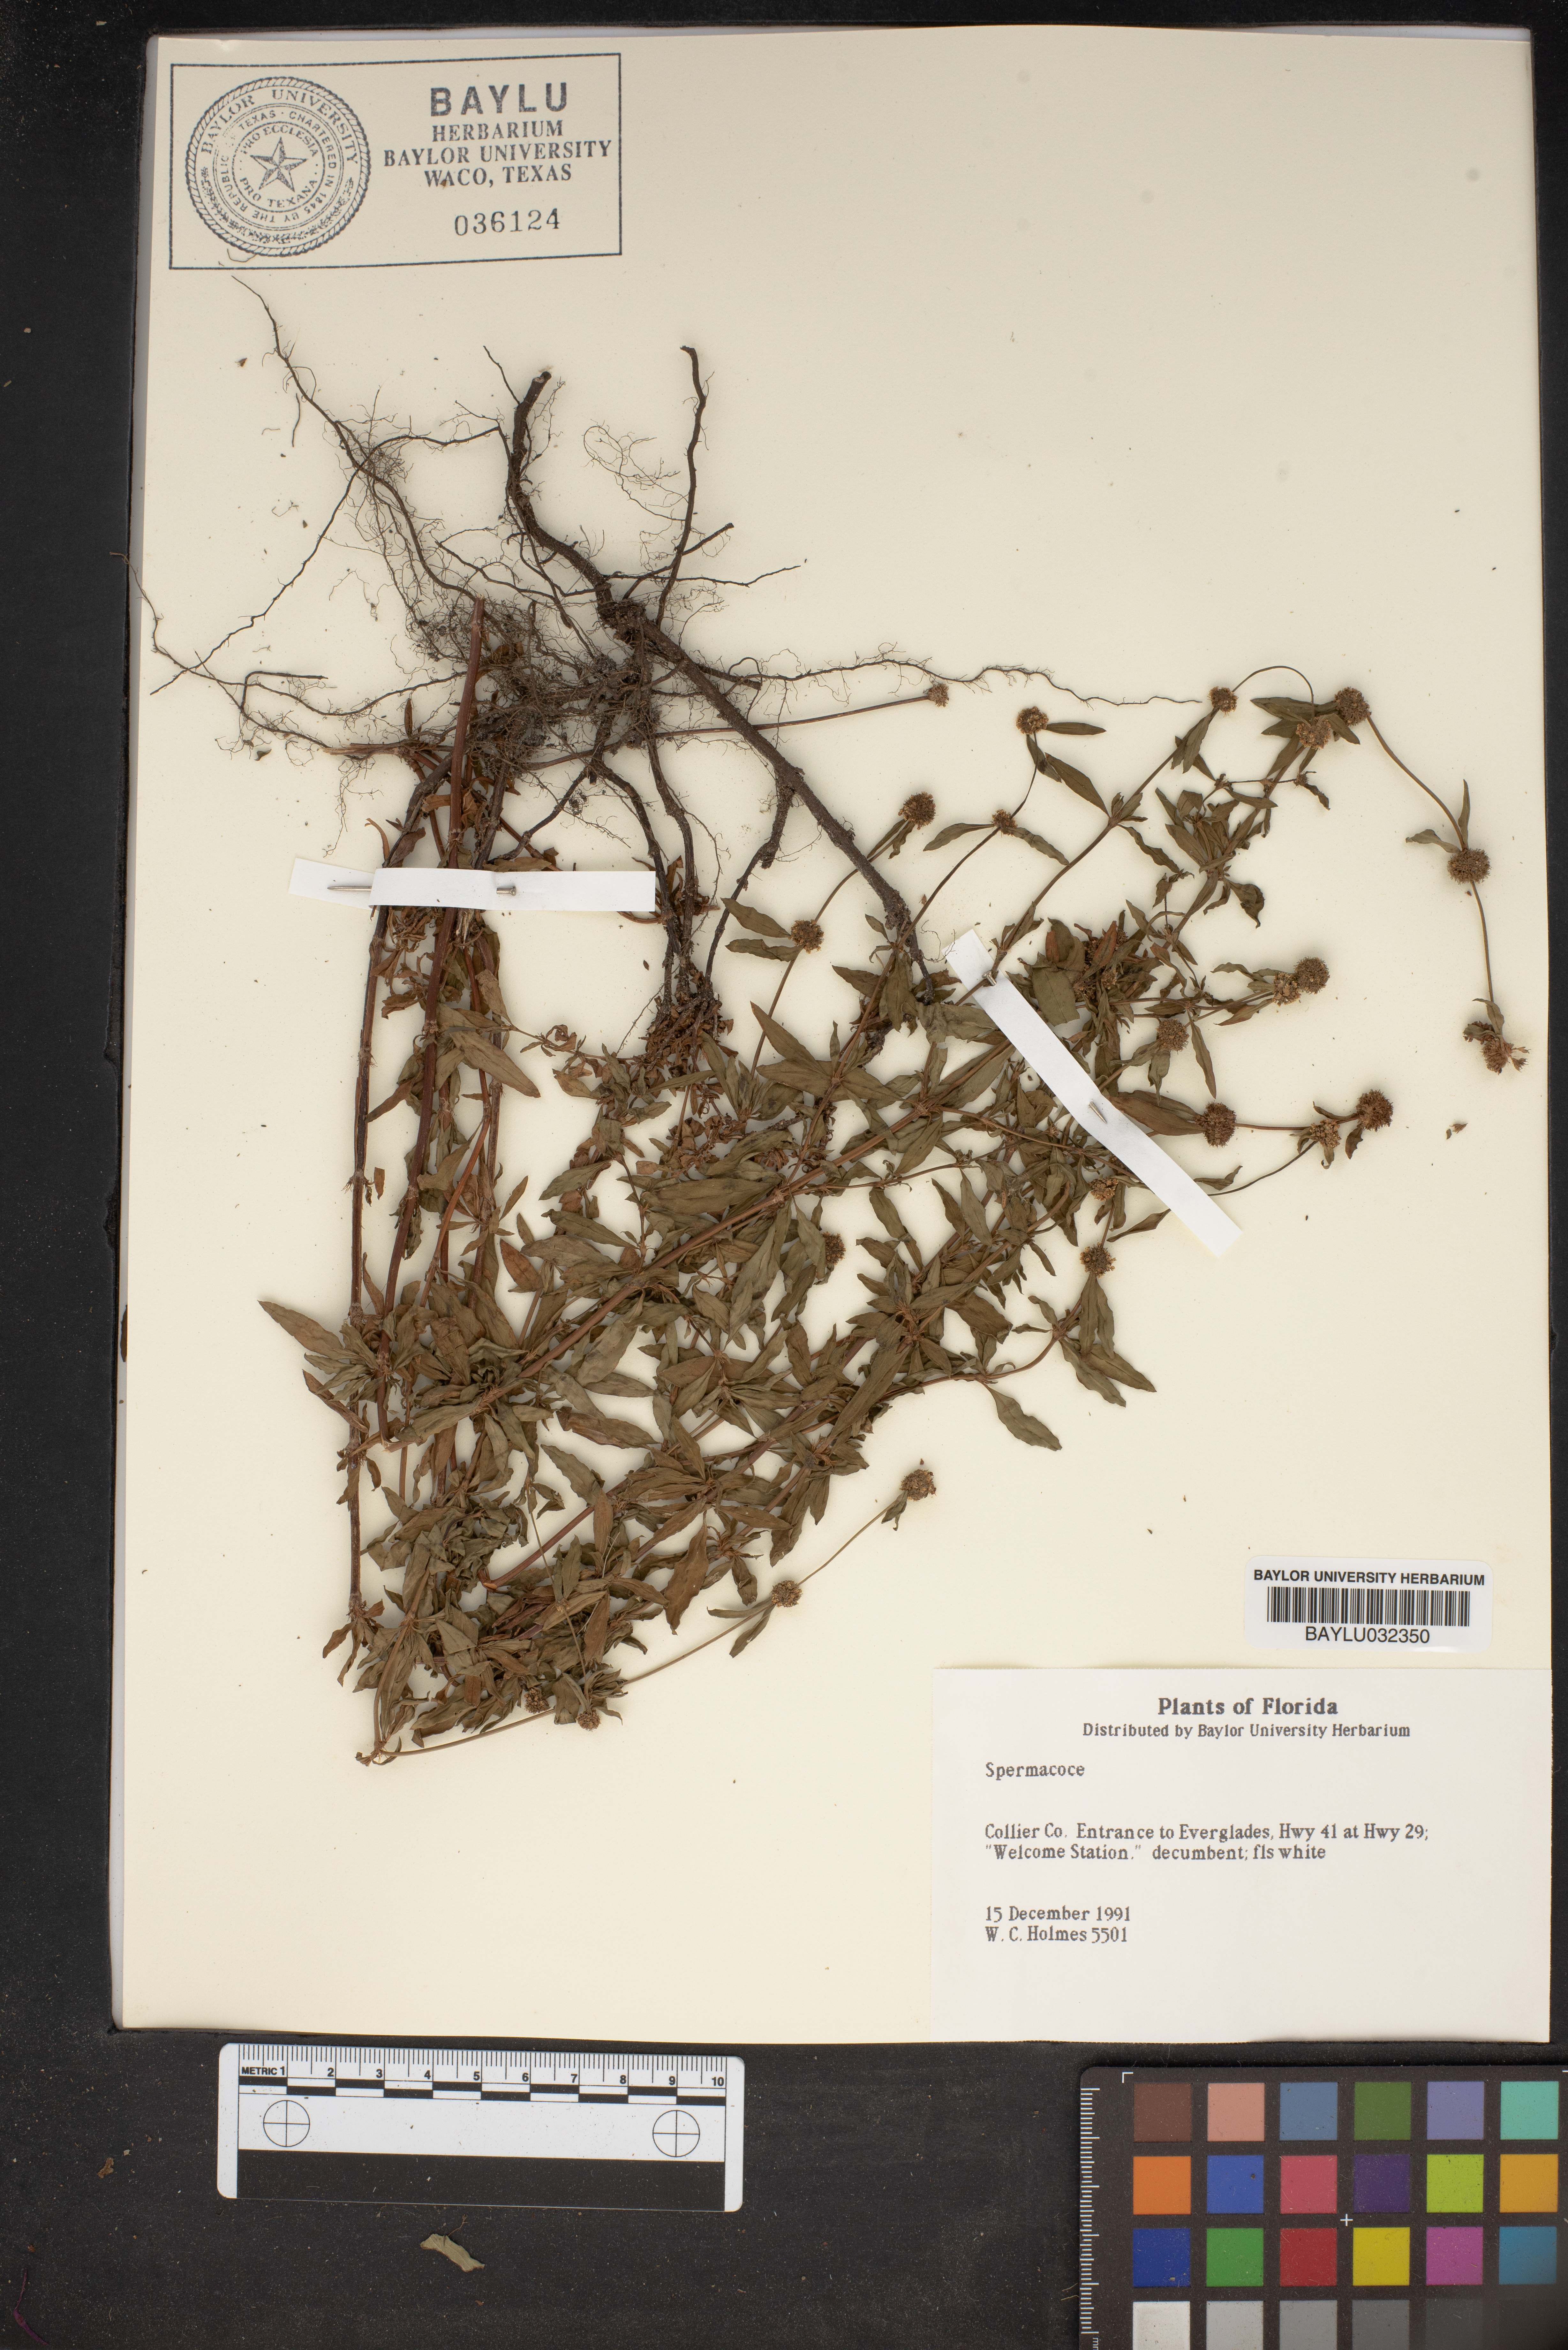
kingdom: Plantae
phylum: Tracheophyta
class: Magnoliopsida
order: Gentianales
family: Rubiaceae
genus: Spermacoce
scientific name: Spermacoce
